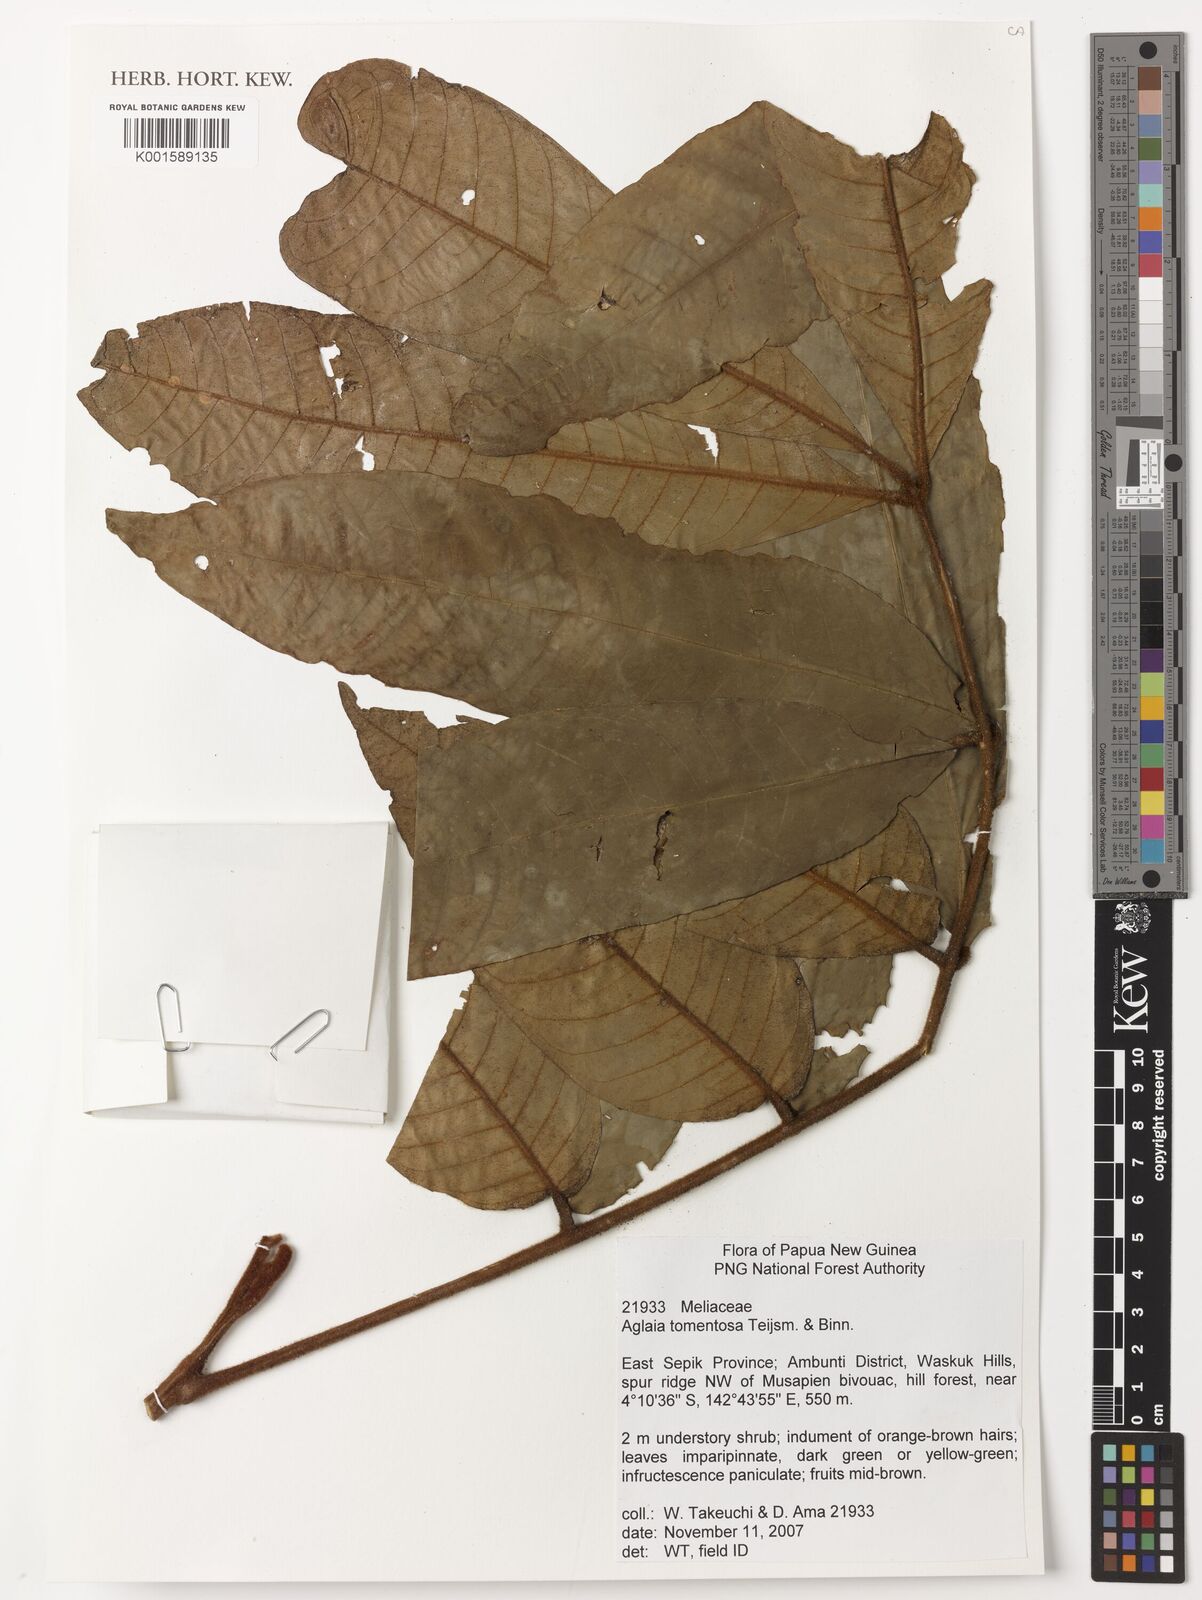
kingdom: Plantae
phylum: Tracheophyta
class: Magnoliopsida
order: Sapindales
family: Meliaceae
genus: Aglaia
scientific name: Aglaia tomentosa
